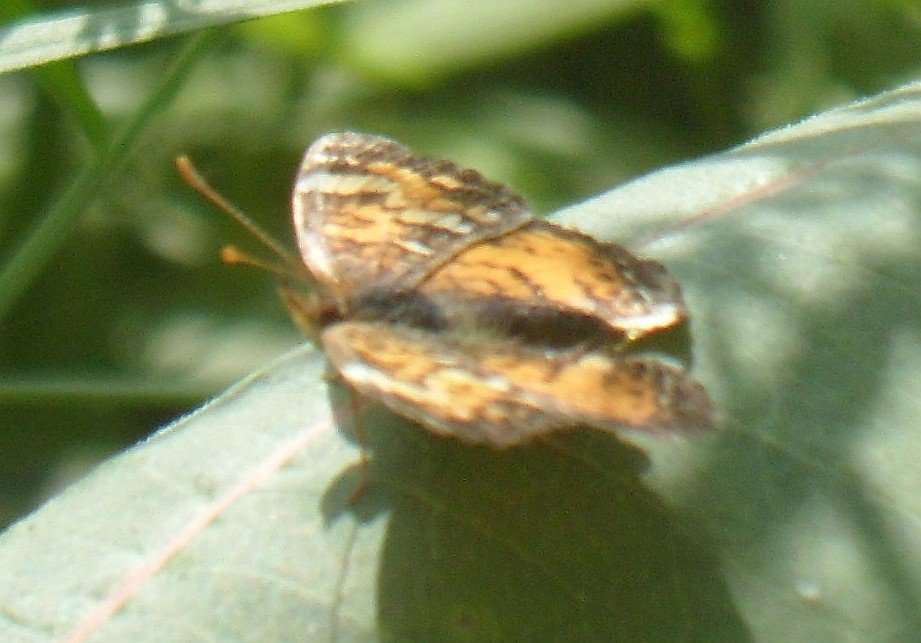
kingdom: Animalia
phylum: Arthropoda
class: Insecta
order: Lepidoptera
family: Nymphalidae
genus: Phyciodes
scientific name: Phyciodes tharos
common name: Northern Crescent
